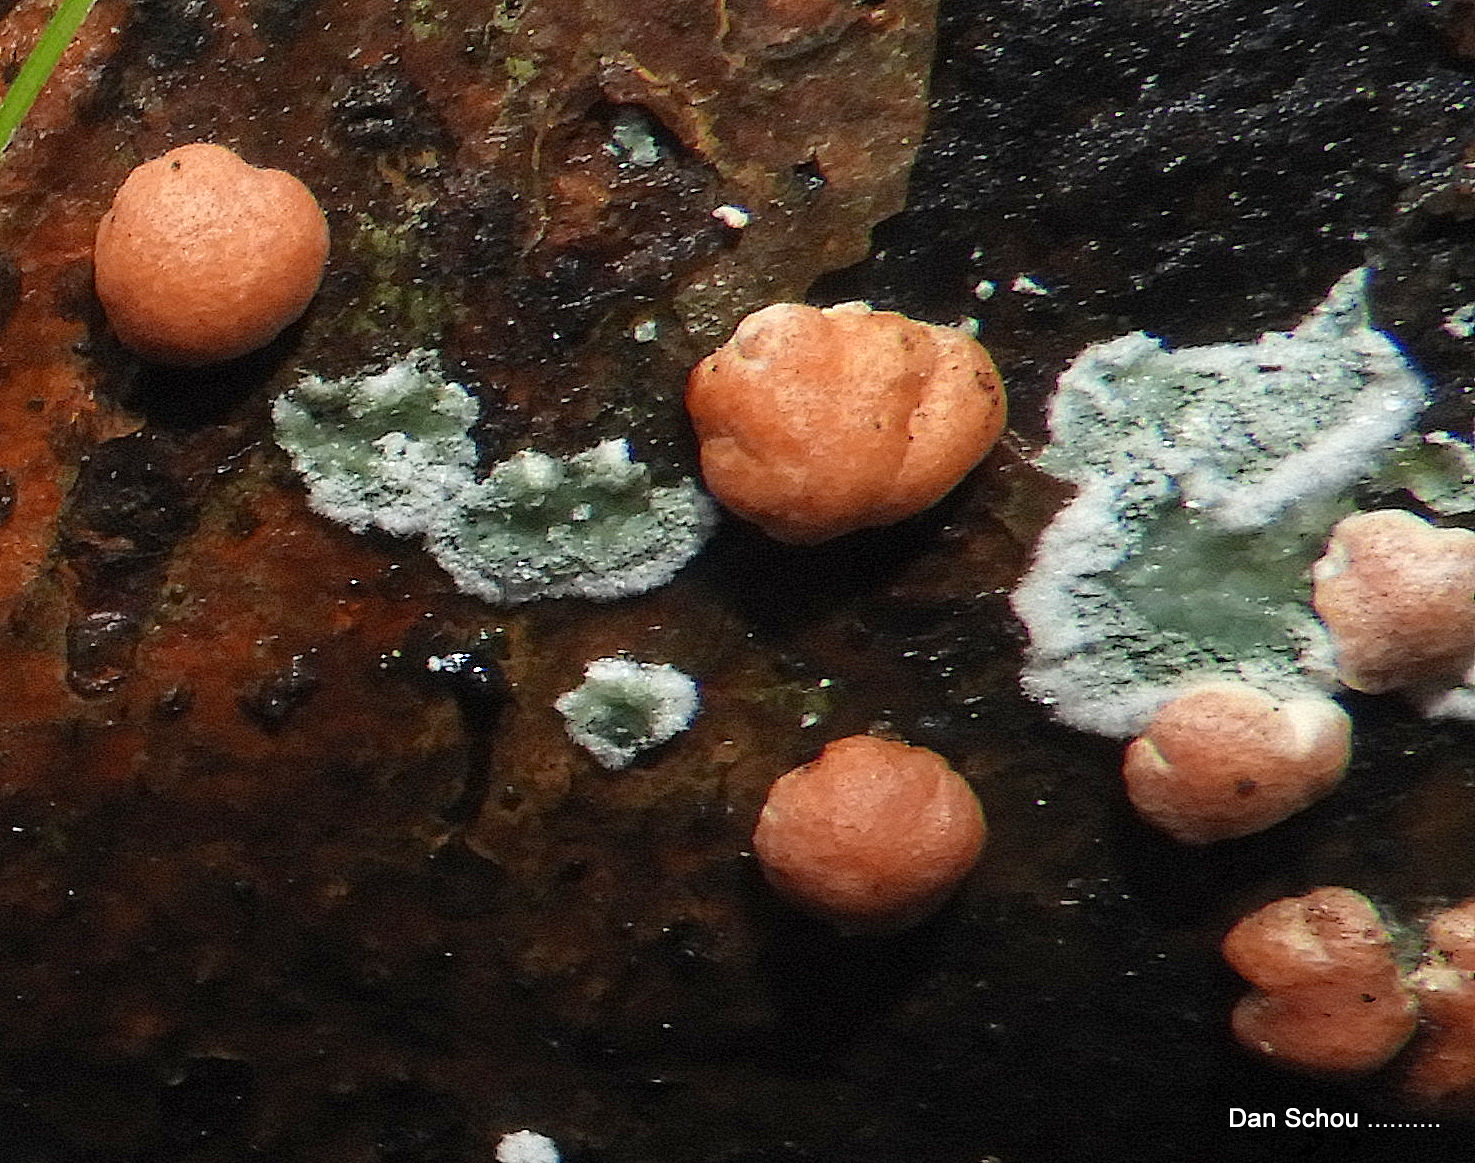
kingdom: Fungi
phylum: Ascomycota
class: Sordariomycetes
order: Hypocreales
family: Hypocreaceae
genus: Trichoderma
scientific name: Trichoderma europaeum
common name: rosabrun kødkerne
